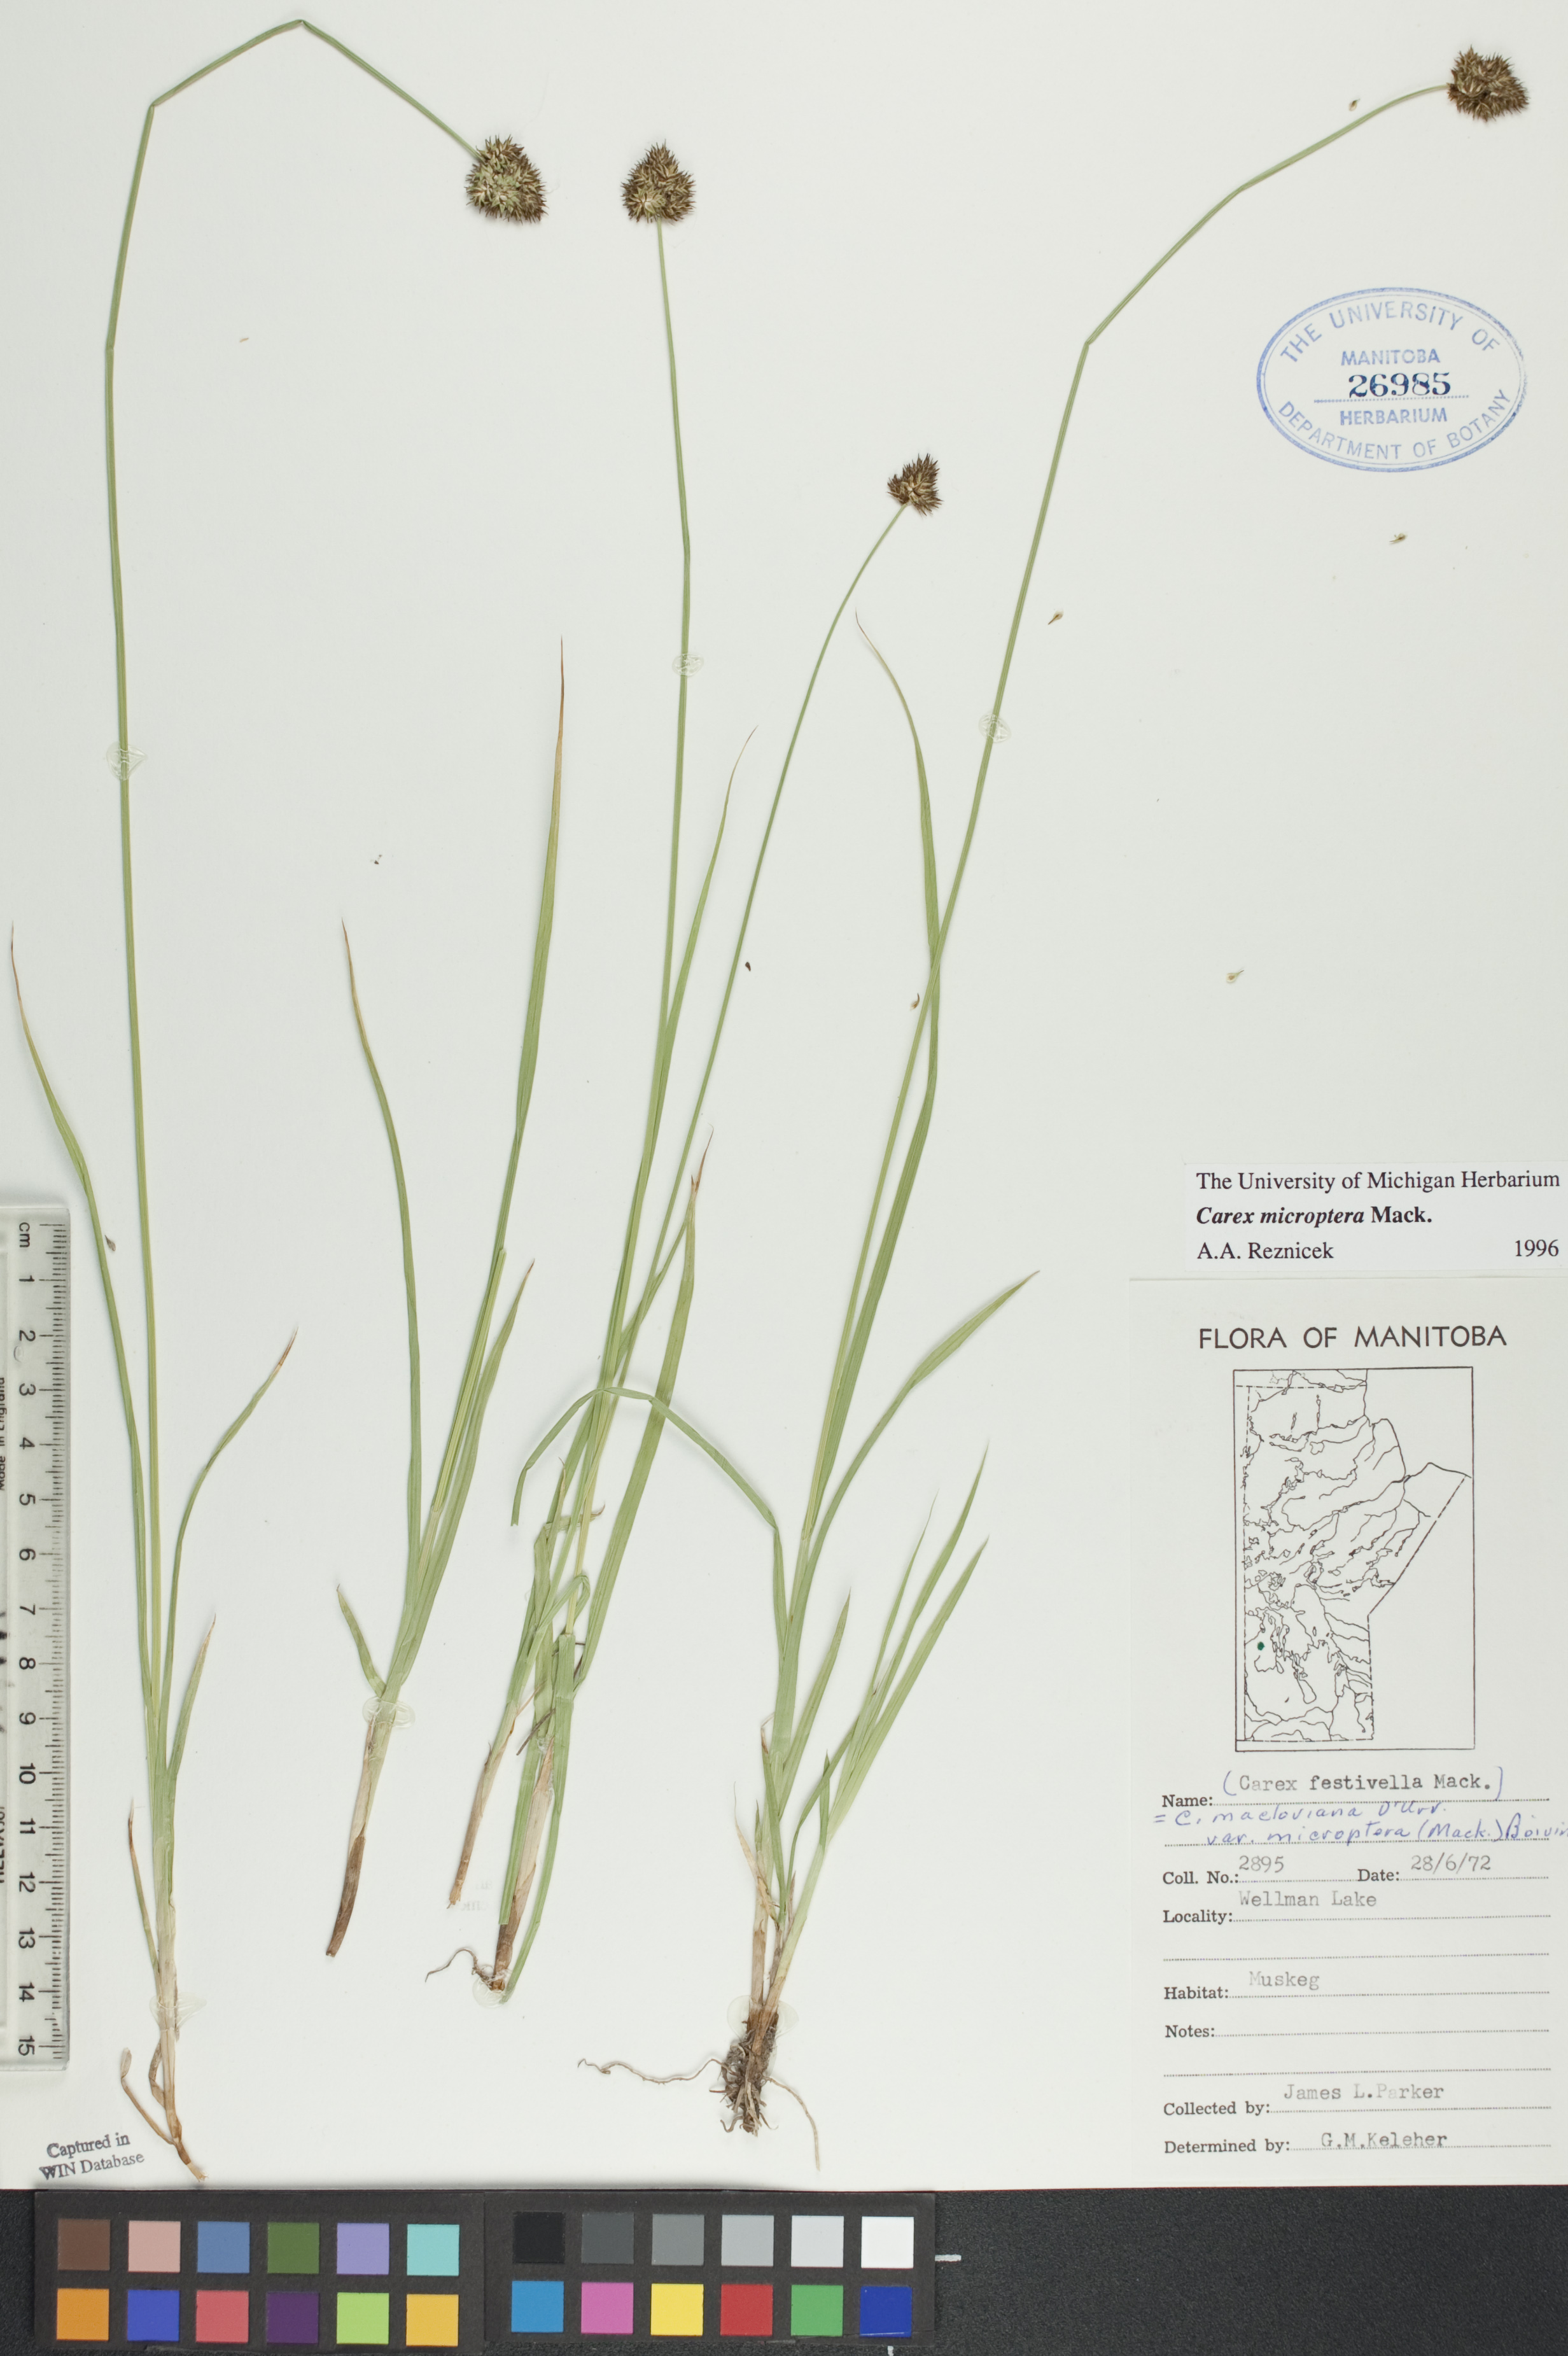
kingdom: Plantae
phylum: Tracheophyta
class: Liliopsida
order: Poales
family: Cyperaceae
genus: Carex
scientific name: Carex microptera
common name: Oval-headed sedge
